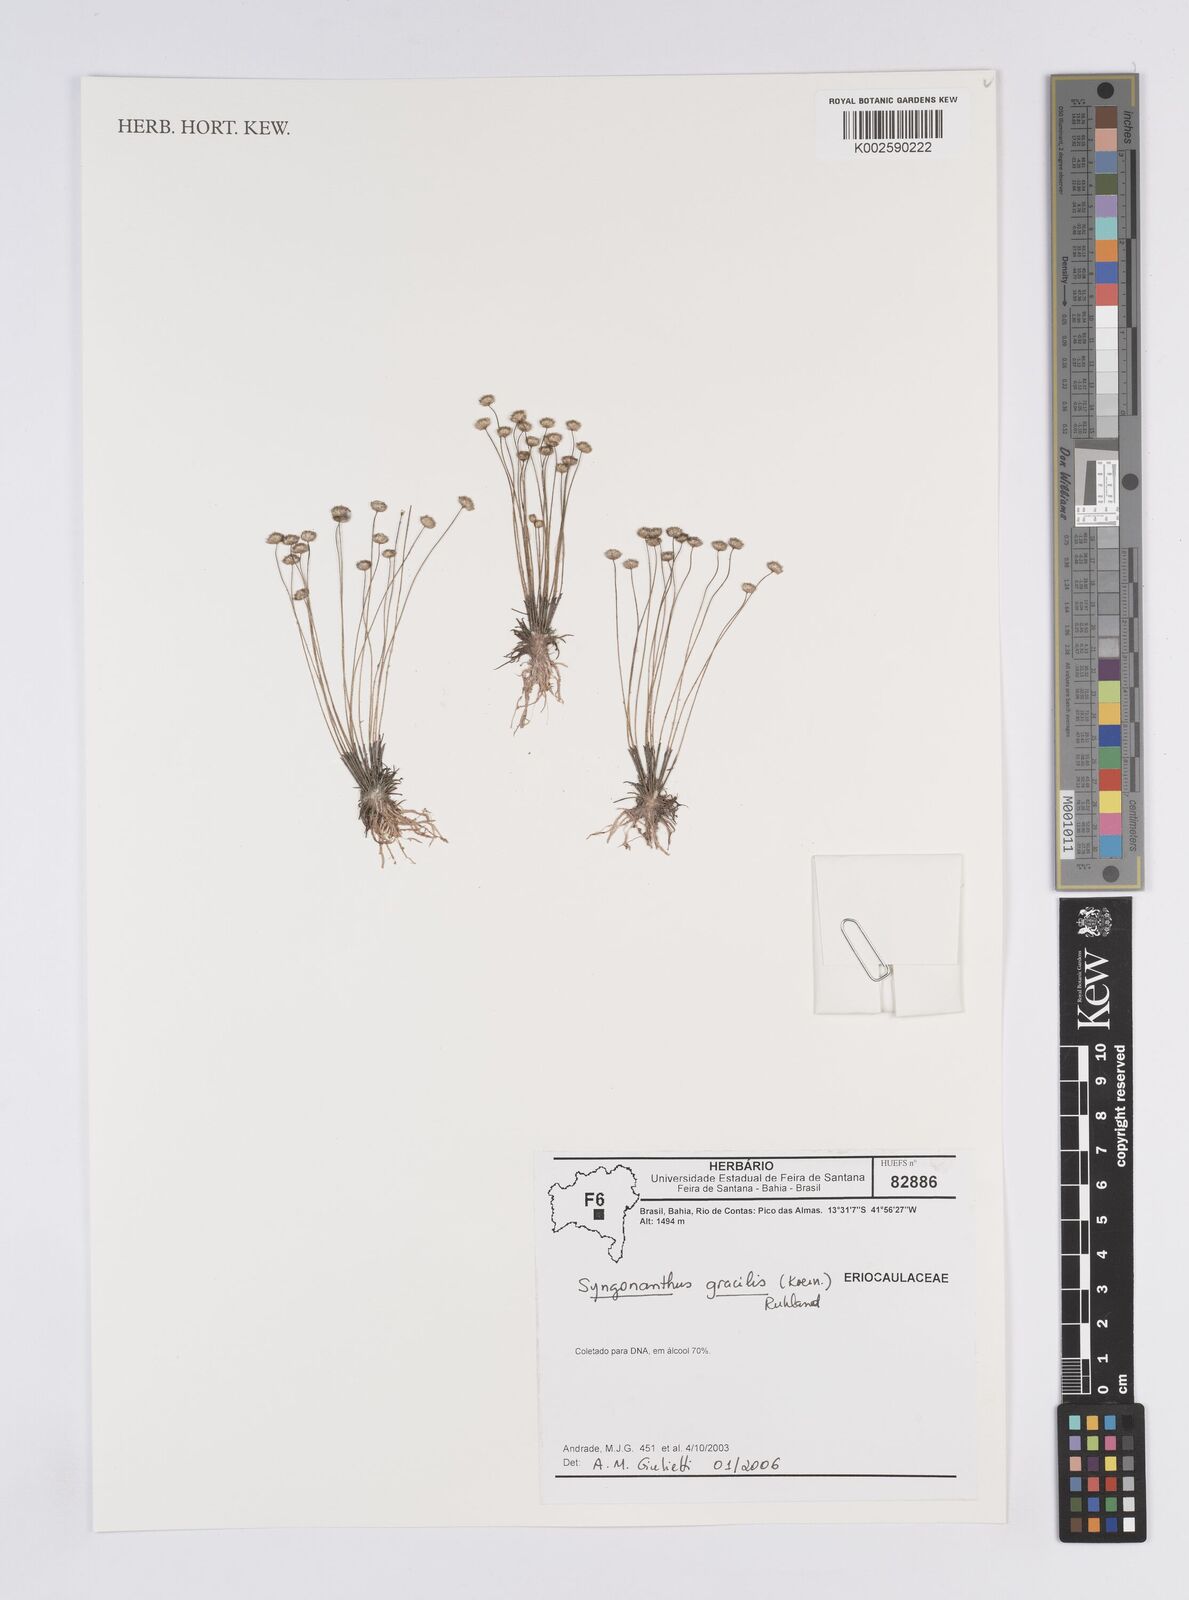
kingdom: Plantae
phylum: Tracheophyta
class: Liliopsida
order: Poales
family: Eriocaulaceae
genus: Syngonanthus
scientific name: Syngonanthus gracilis
